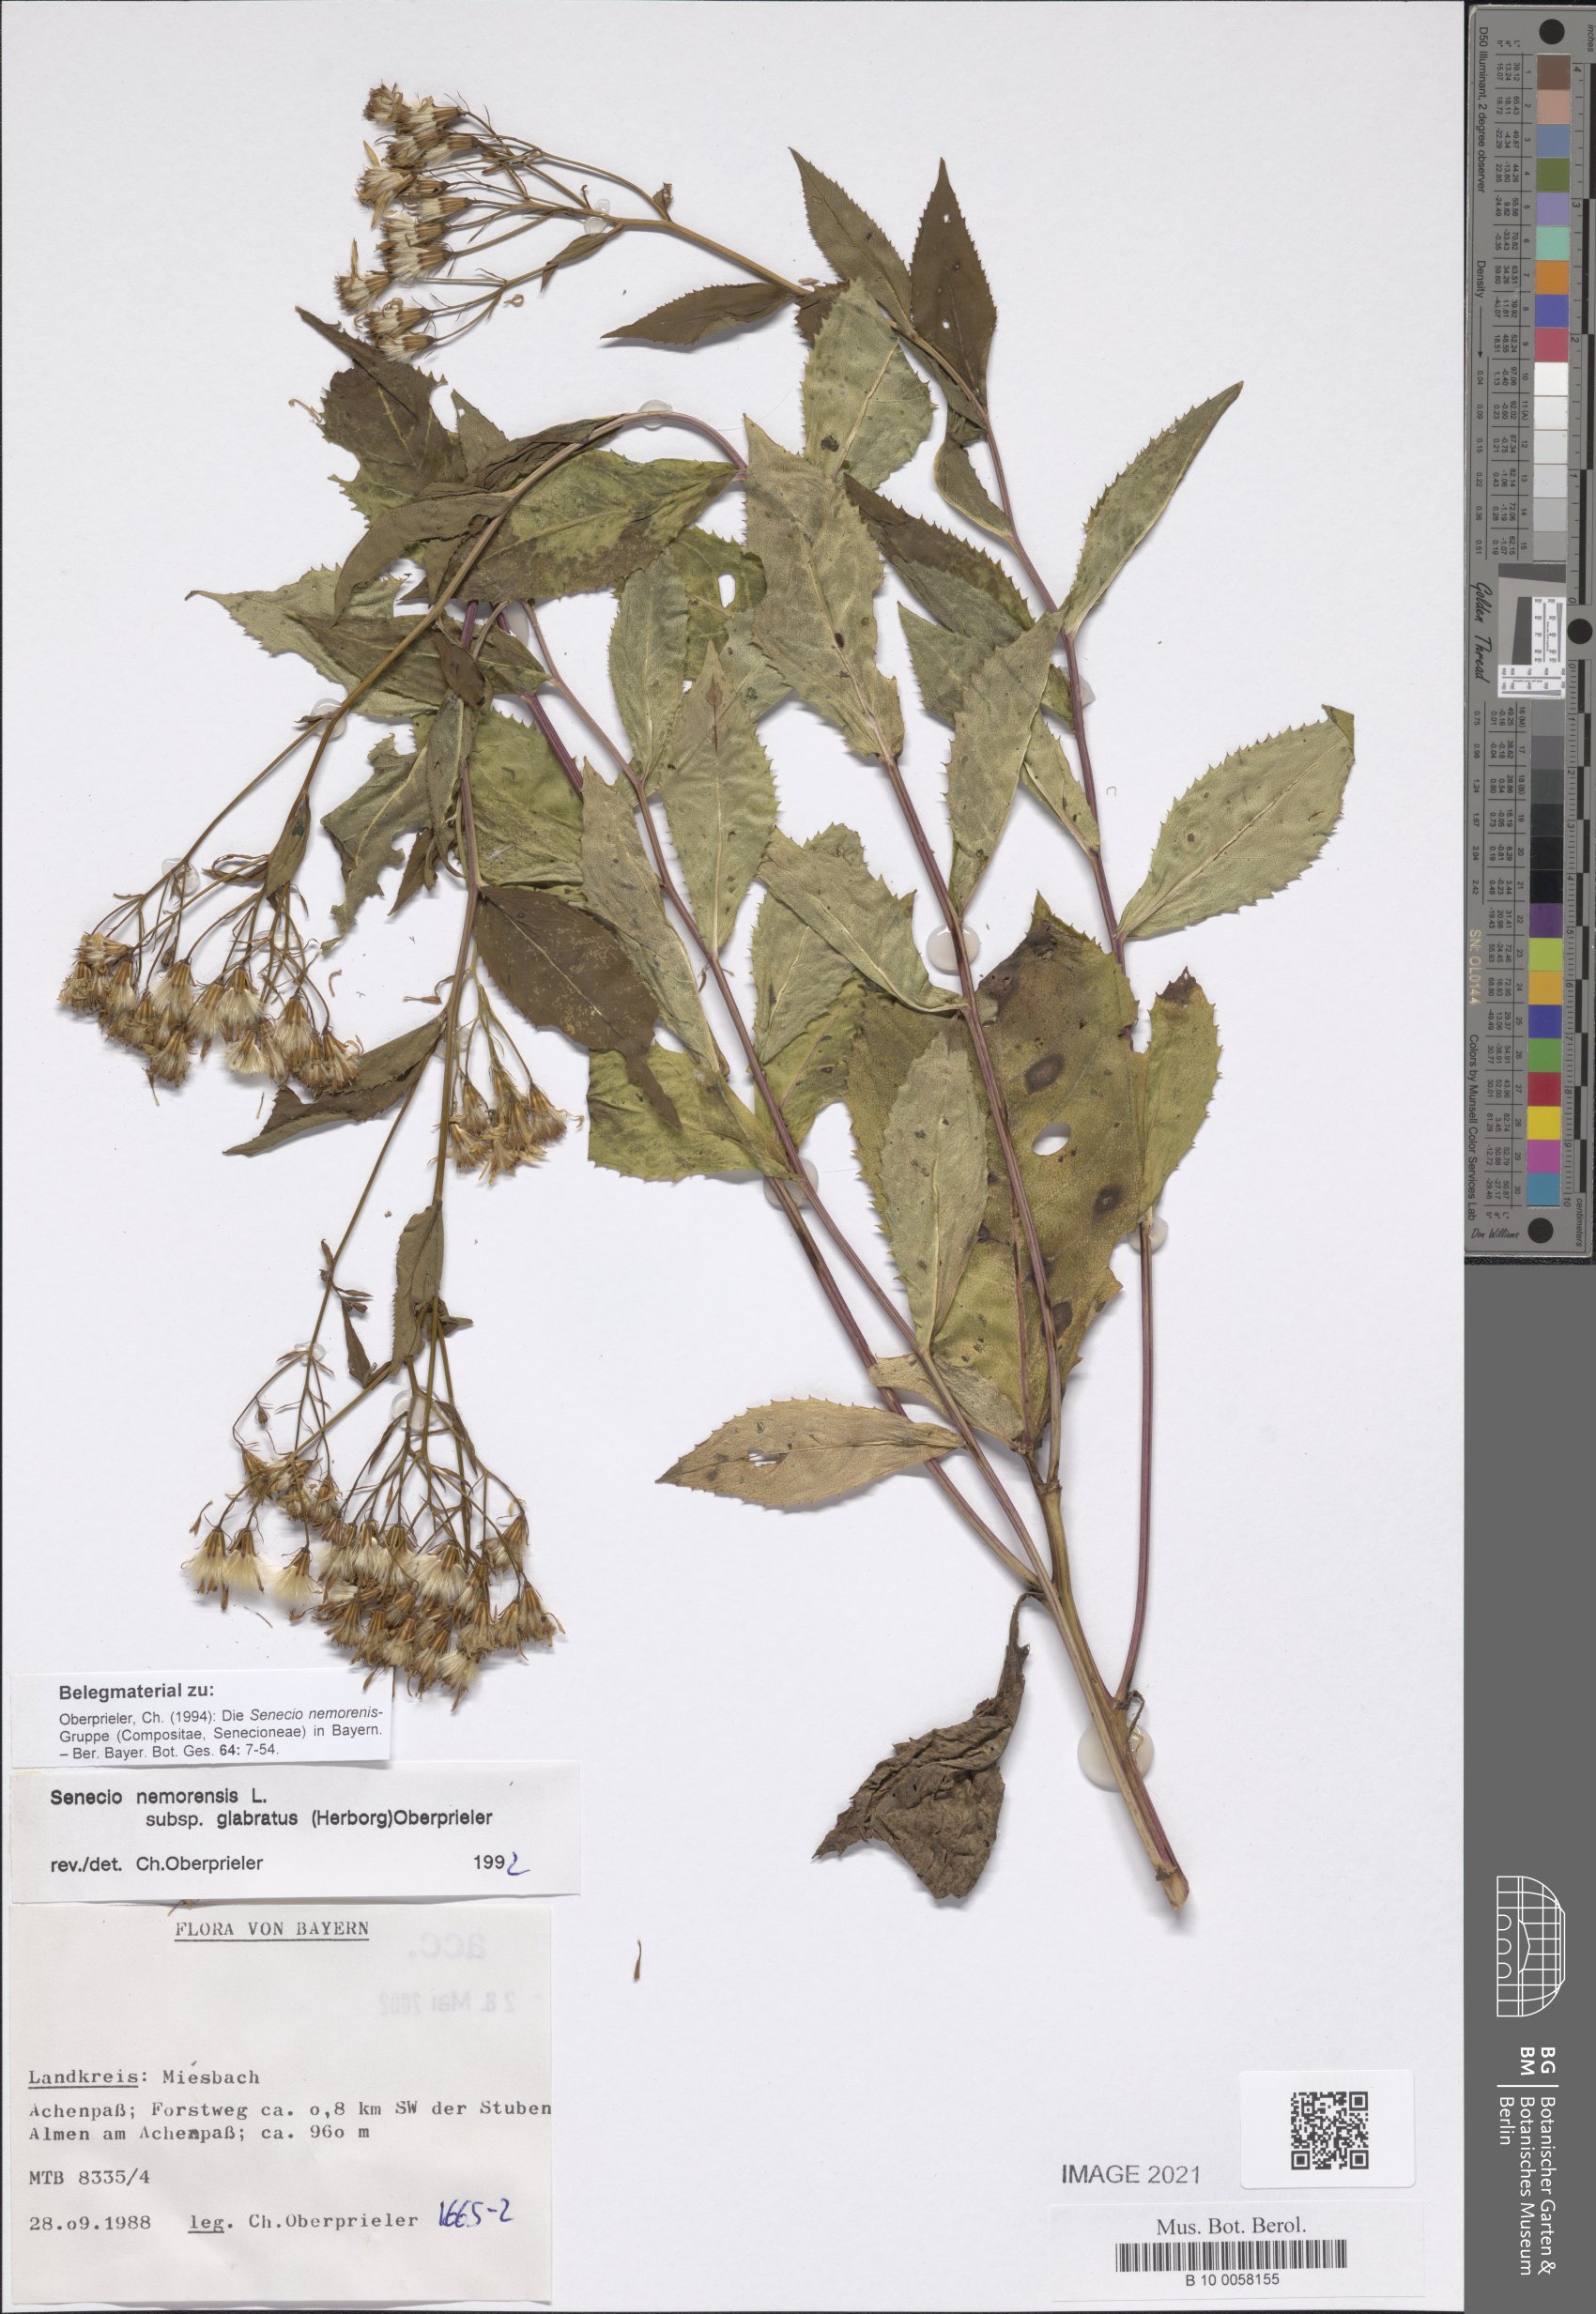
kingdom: Plantae
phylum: Tracheophyta
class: Magnoliopsida
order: Asterales
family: Asteraceae
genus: Senecio
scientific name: Senecio germanicus
